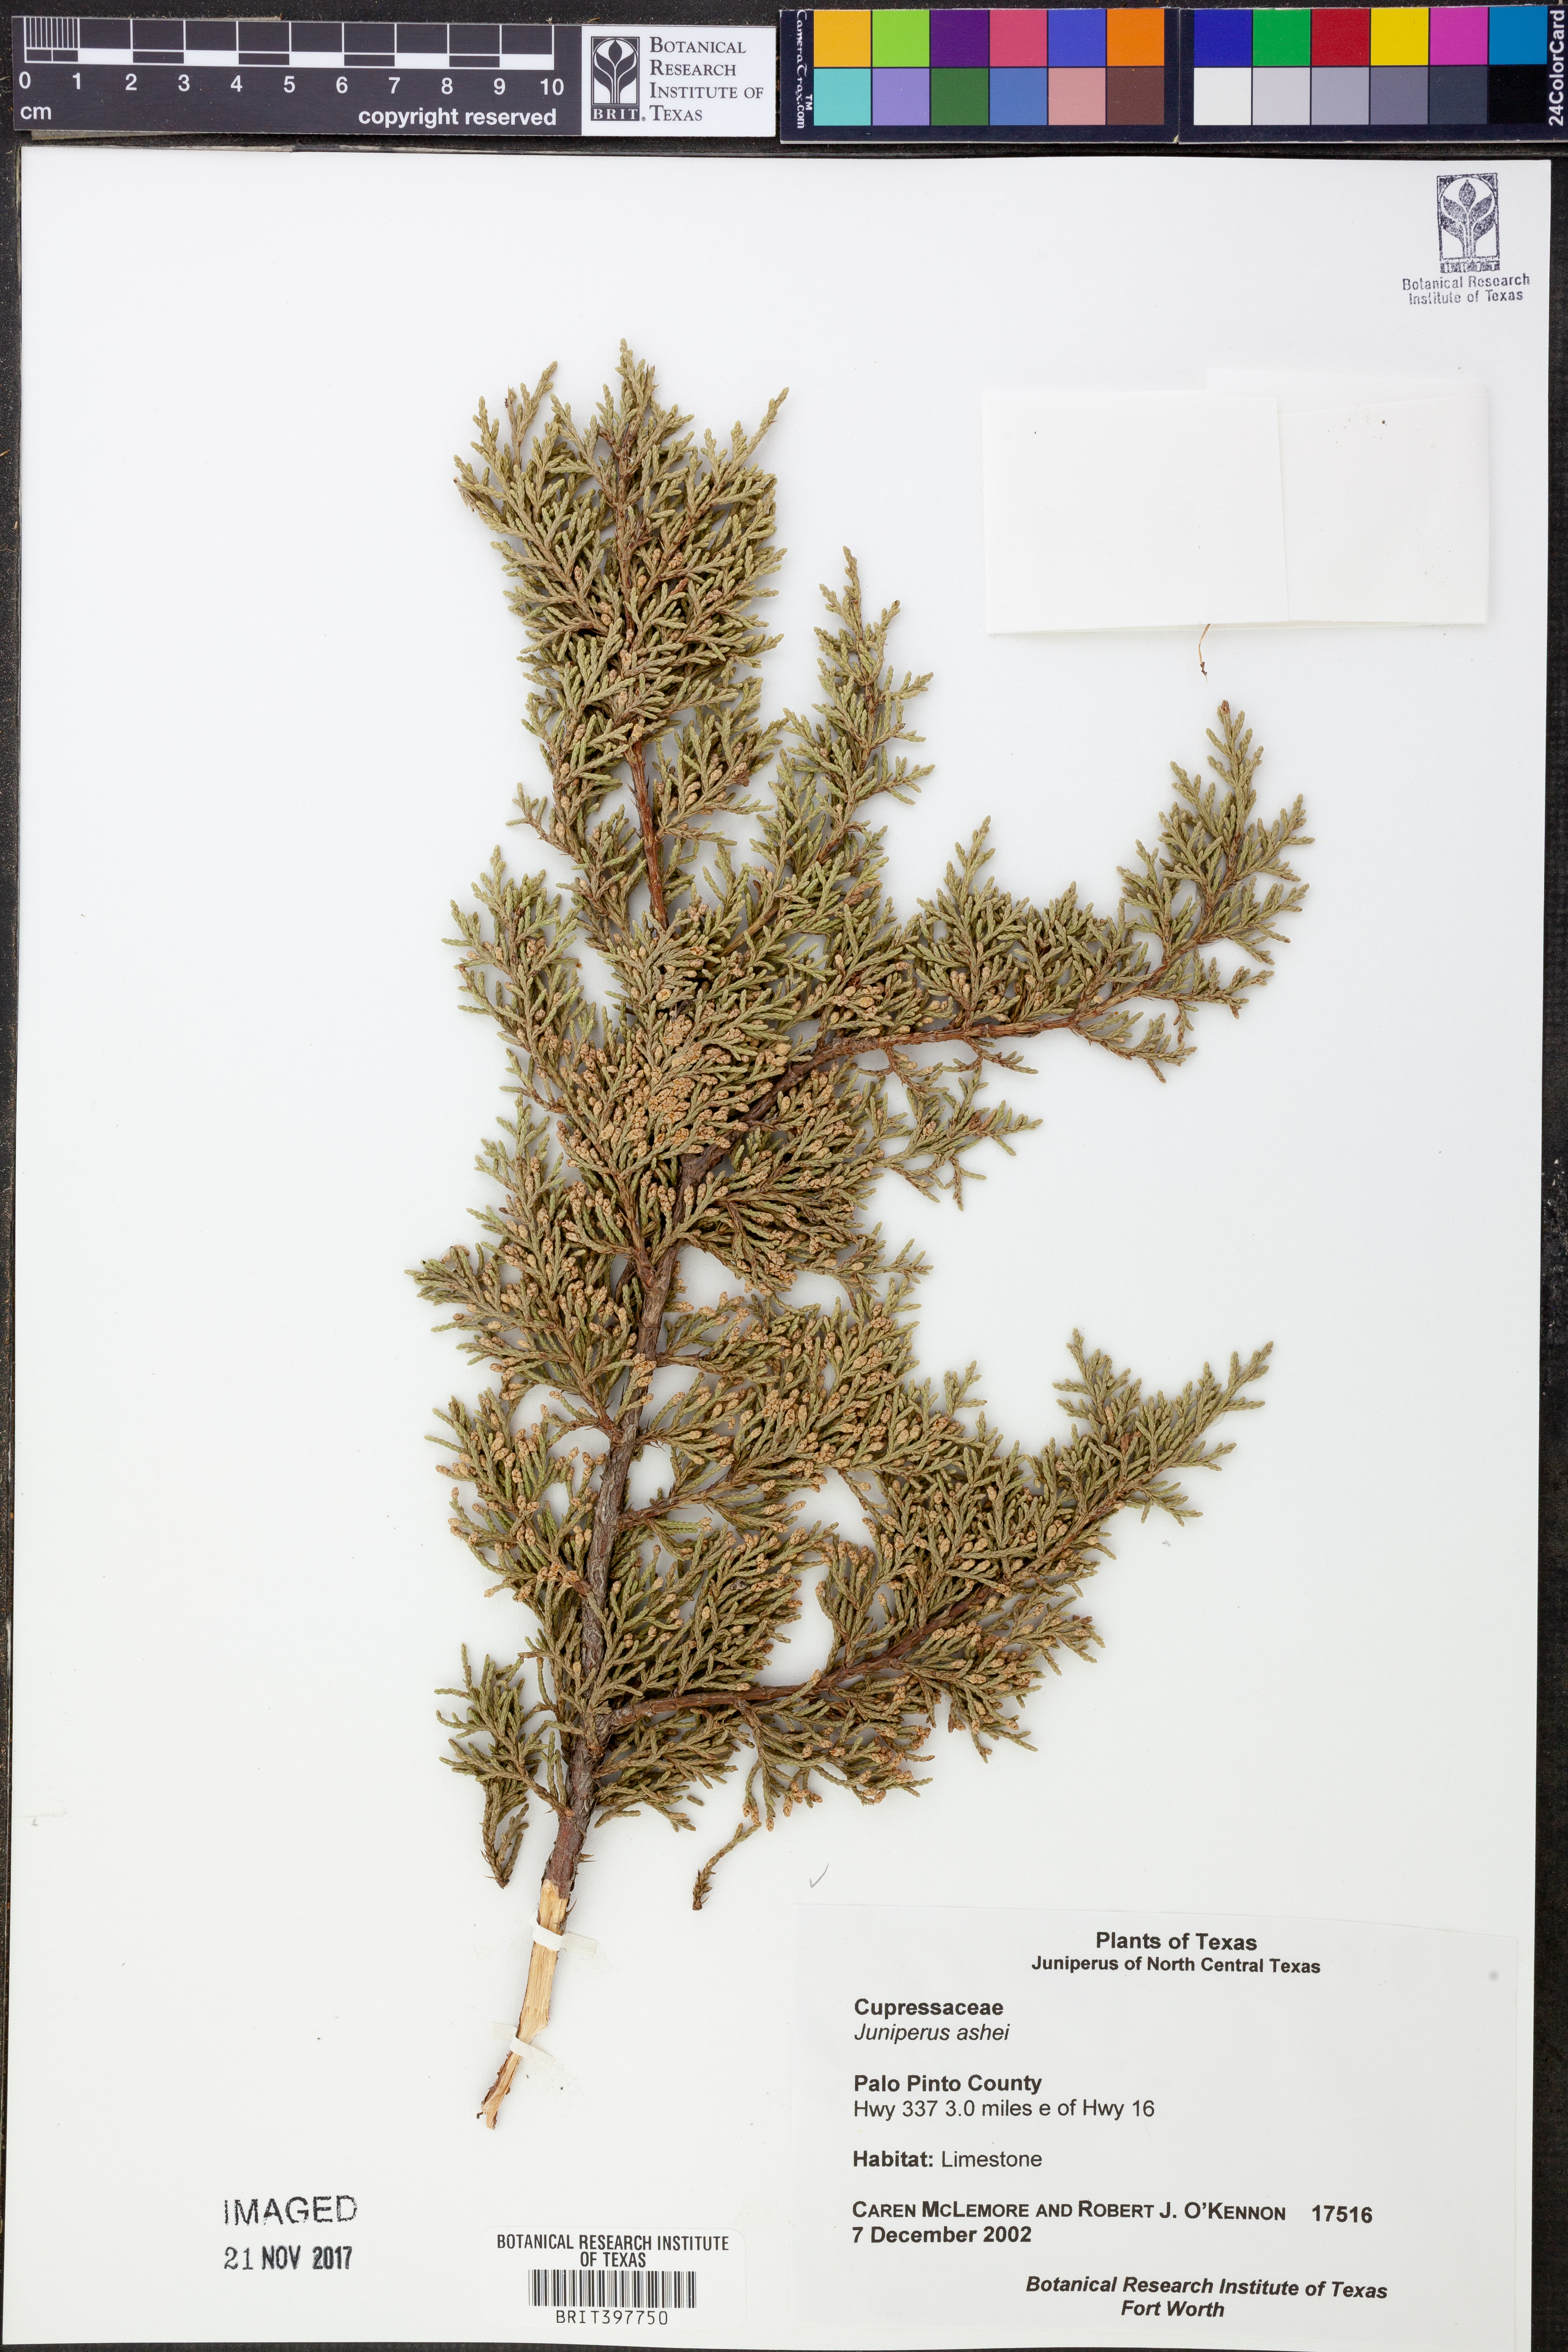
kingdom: Plantae
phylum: Tracheophyta
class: Pinopsida
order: Pinales
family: Cupressaceae
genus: Juniperus
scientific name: Juniperus ashei
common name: Mexican juniper
